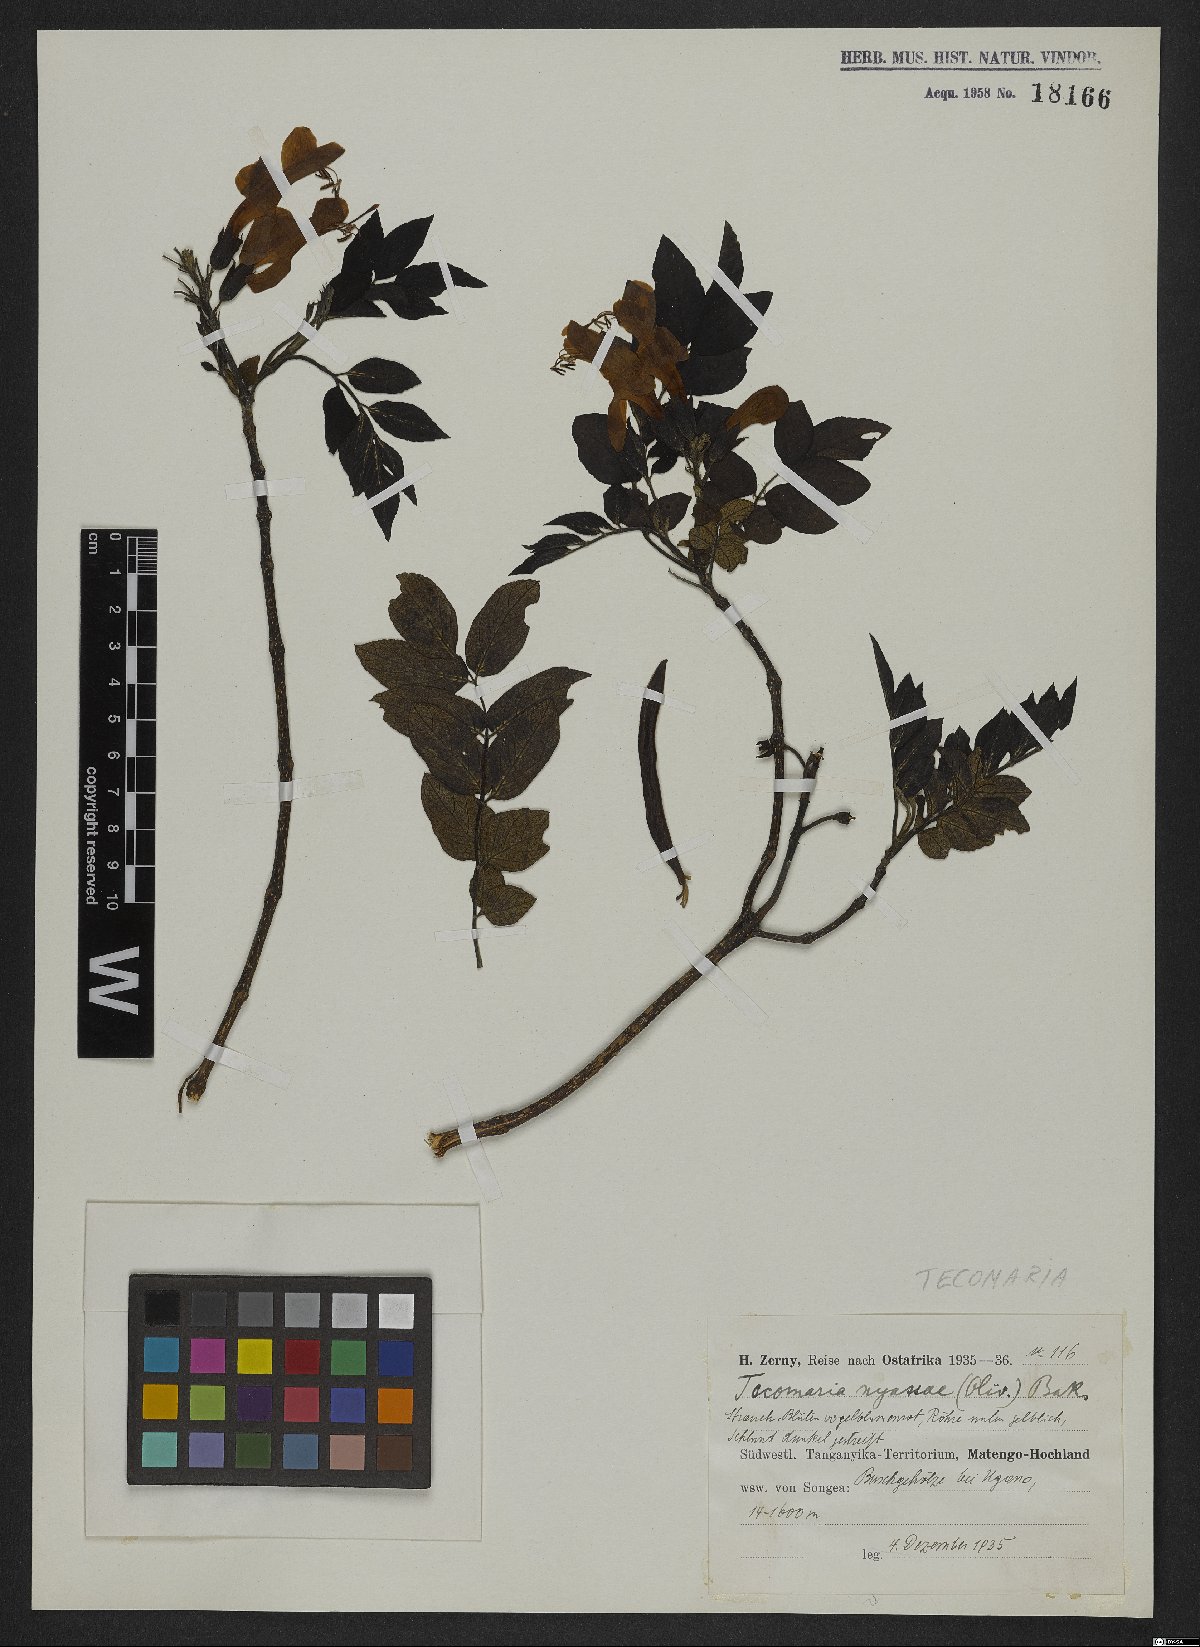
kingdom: Plantae
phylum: Tracheophyta
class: Magnoliopsida
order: Lamiales
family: Bignoniaceae
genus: Tecomaria
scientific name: Tecomaria nyassae
